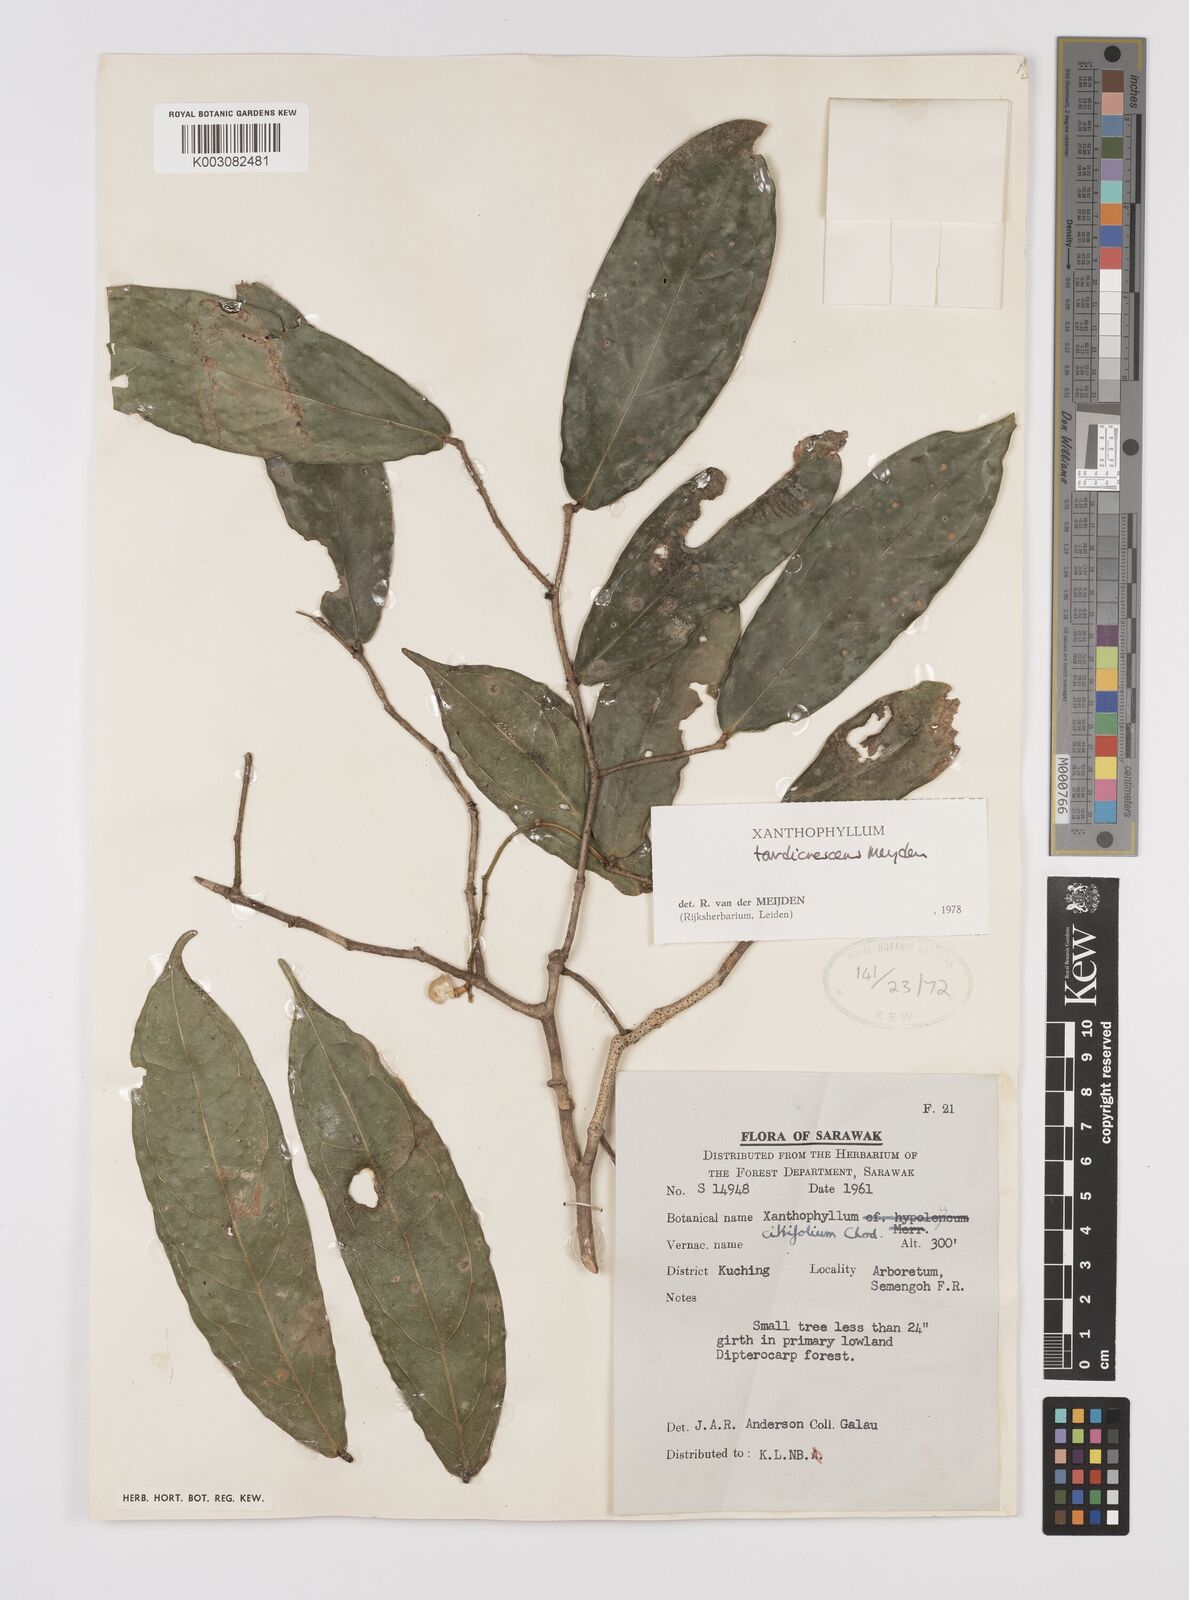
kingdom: Plantae
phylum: Tracheophyta
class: Magnoliopsida
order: Fabales
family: Polygalaceae
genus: Xanthophyllum
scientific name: Xanthophyllum tardicrescens
